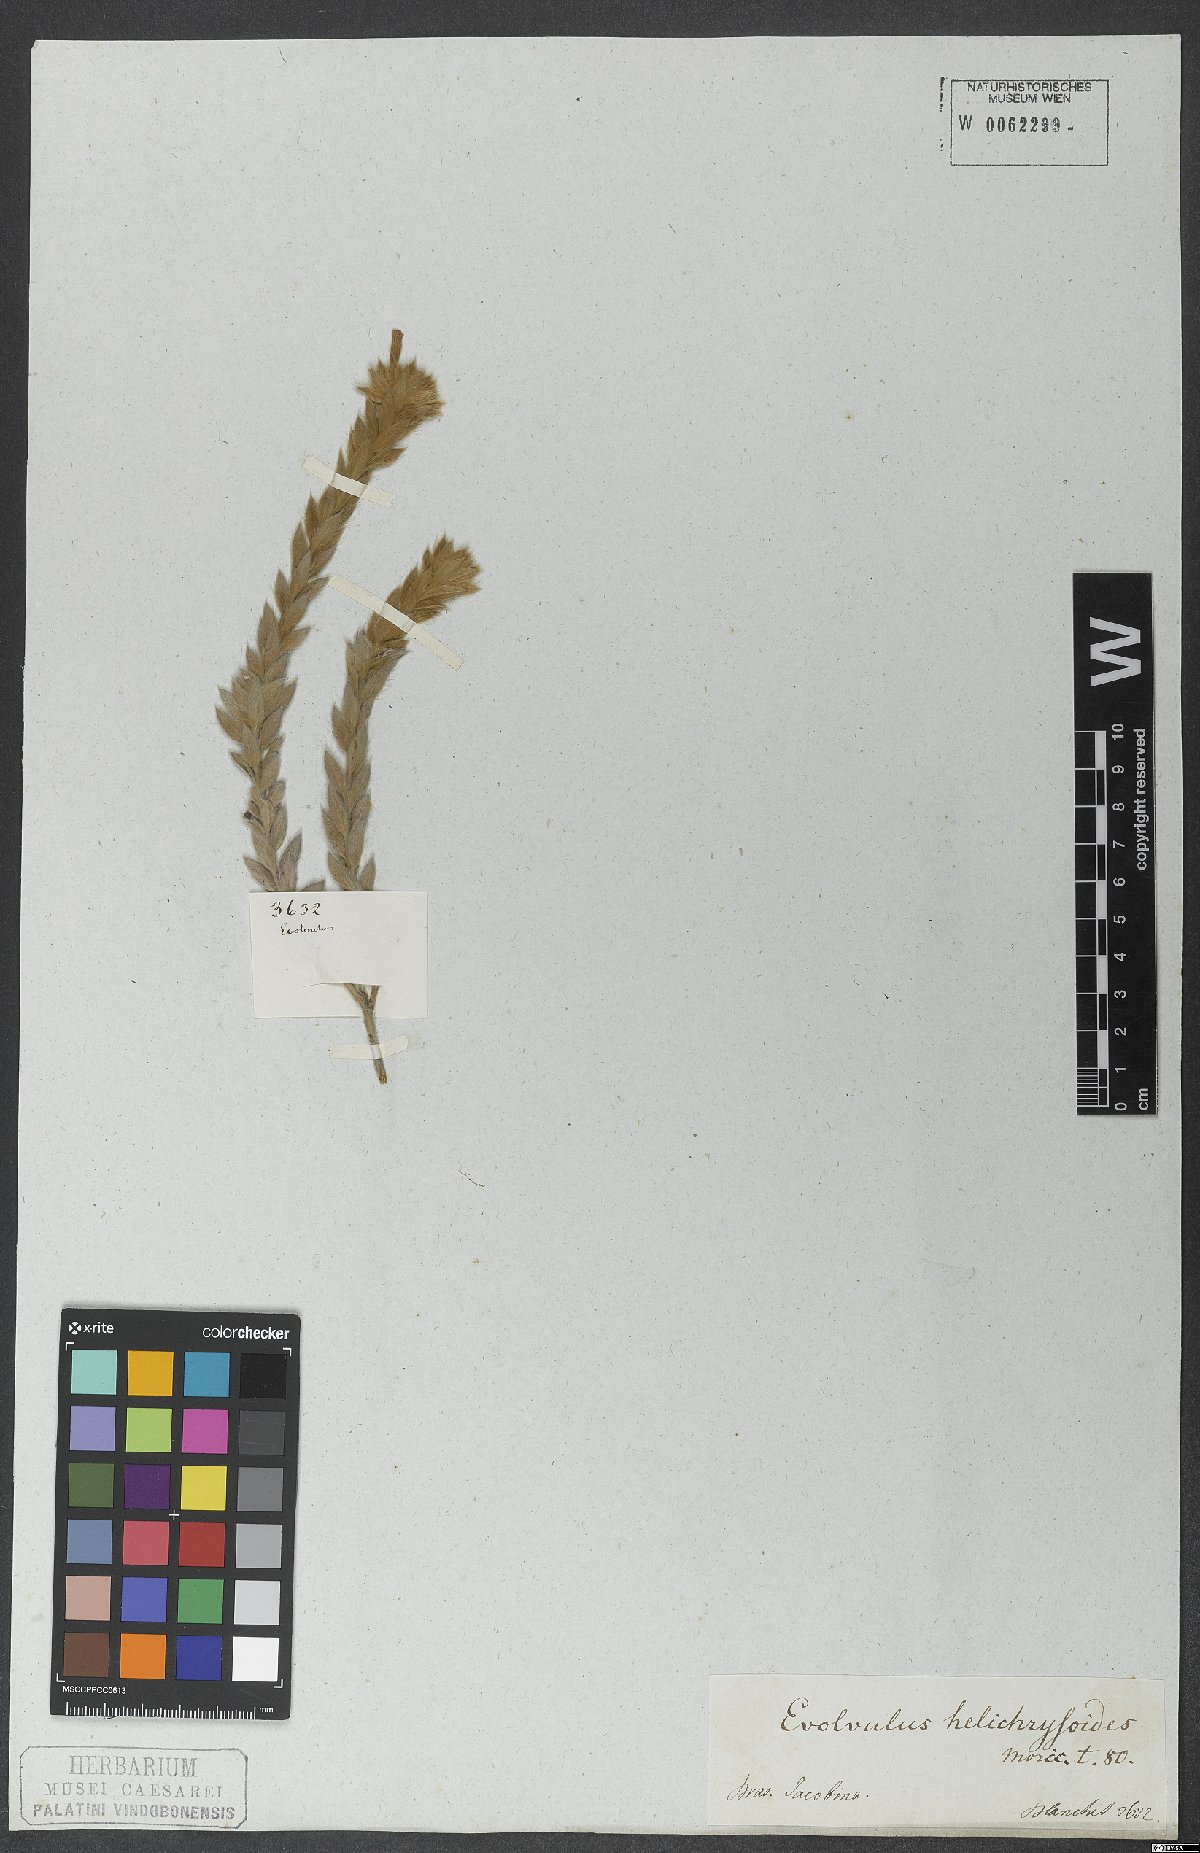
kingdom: Plantae
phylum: Tracheophyta
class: Magnoliopsida
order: Solanales
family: Convolvulaceae
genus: Evolvulus
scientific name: Evolvulus helichrysoides
